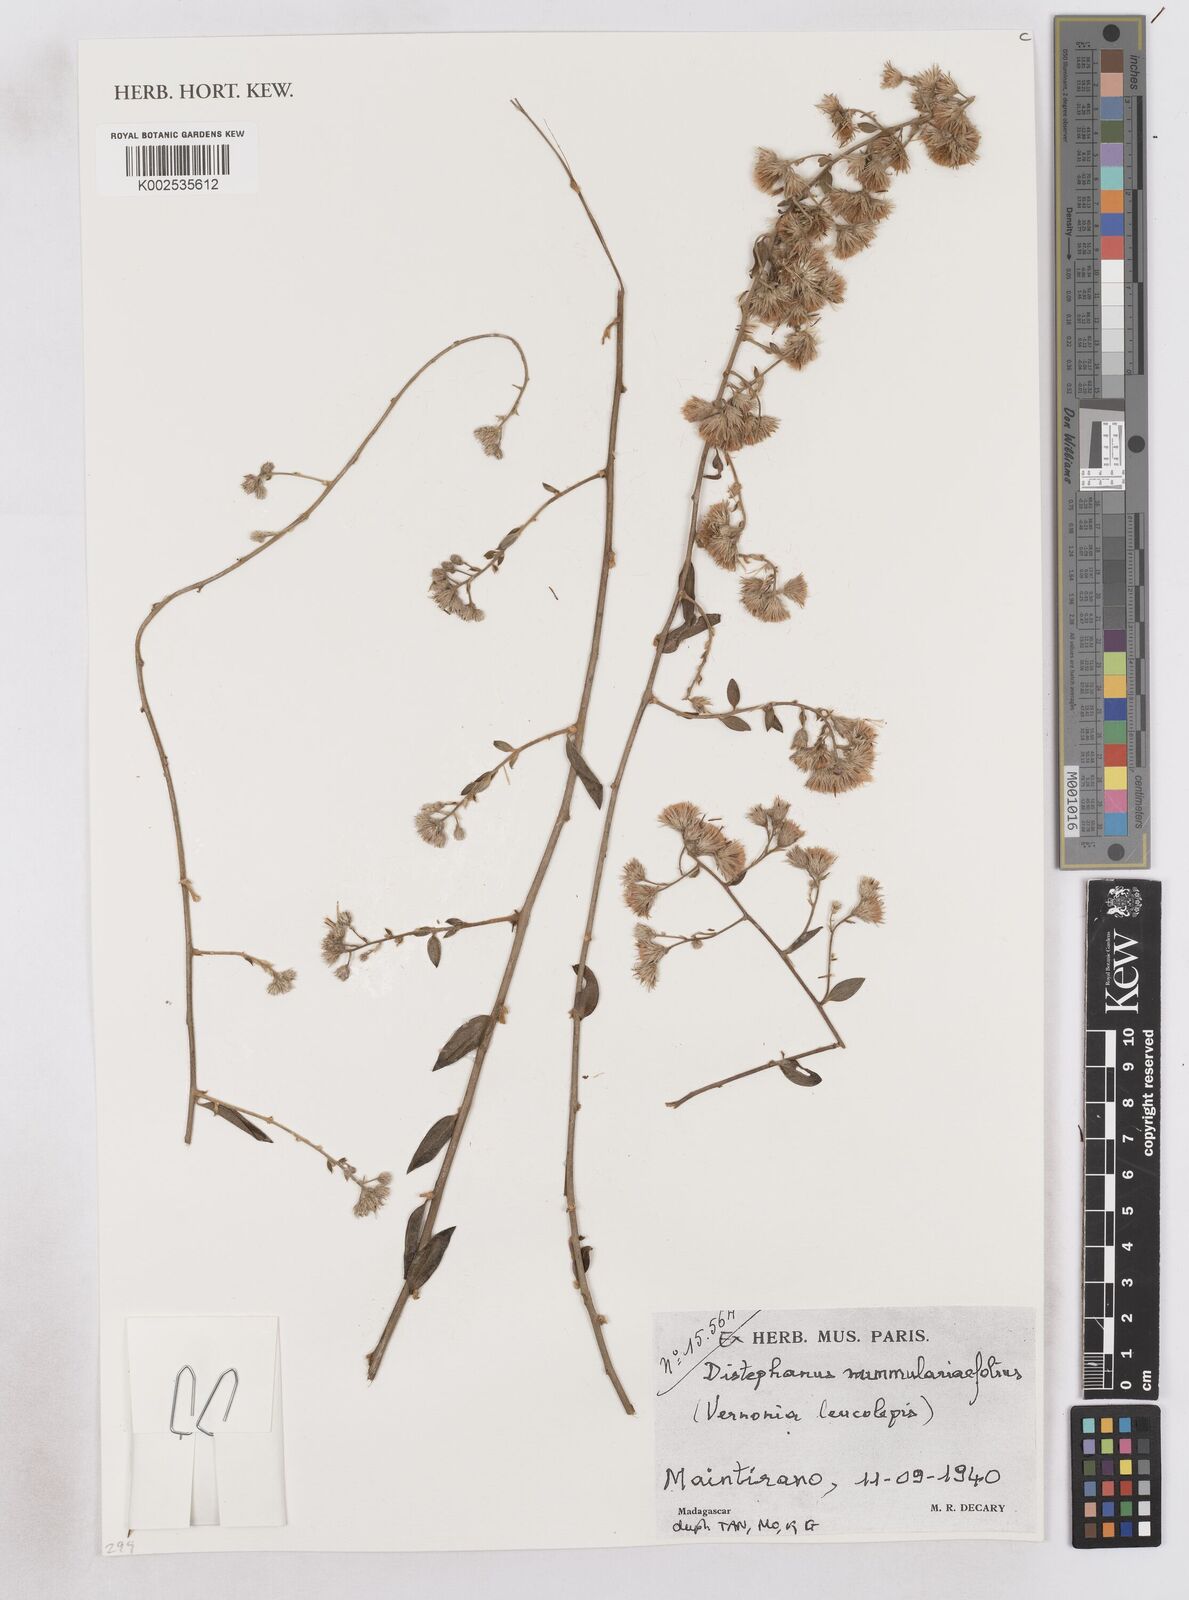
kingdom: Plantae
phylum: Tracheophyta
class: Magnoliopsida
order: Asterales
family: Asteraceae
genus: Distephanus
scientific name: Distephanus nummulariifolius
